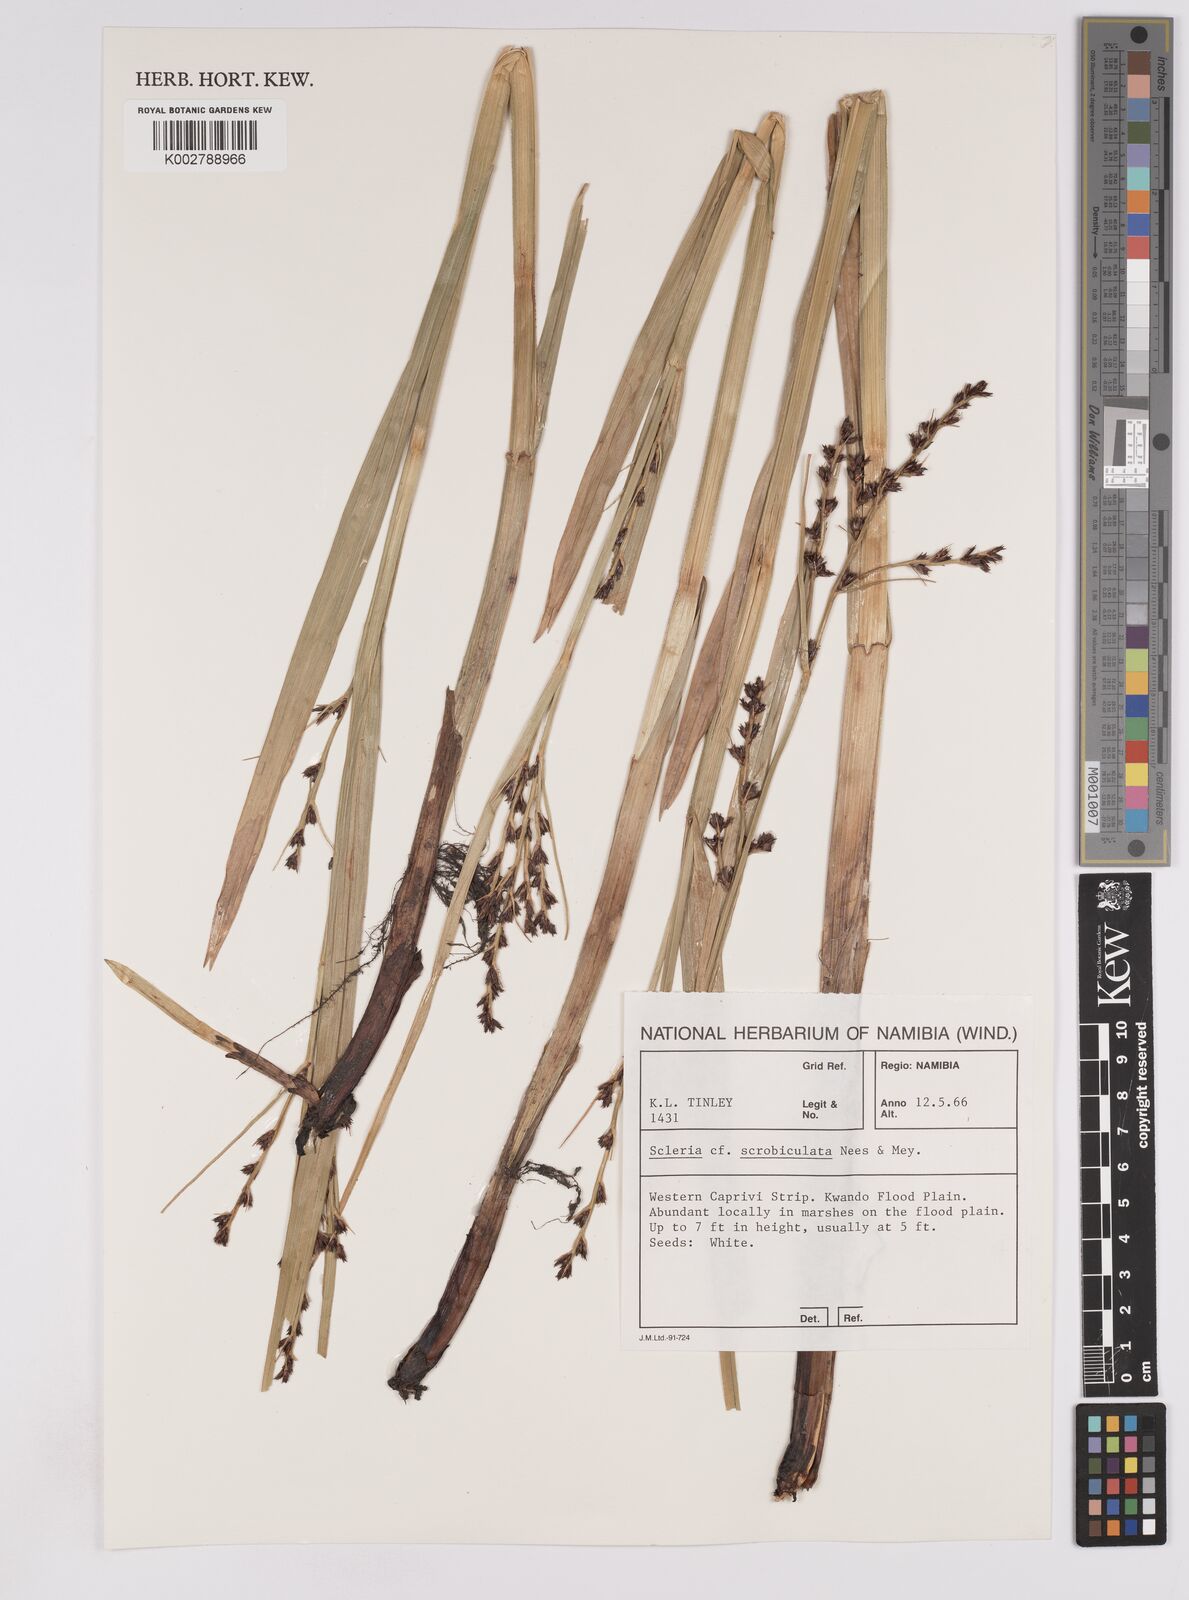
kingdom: Plantae
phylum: Tracheophyta
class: Liliopsida
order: Poales
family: Cyperaceae
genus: Scleria
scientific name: Scleria
